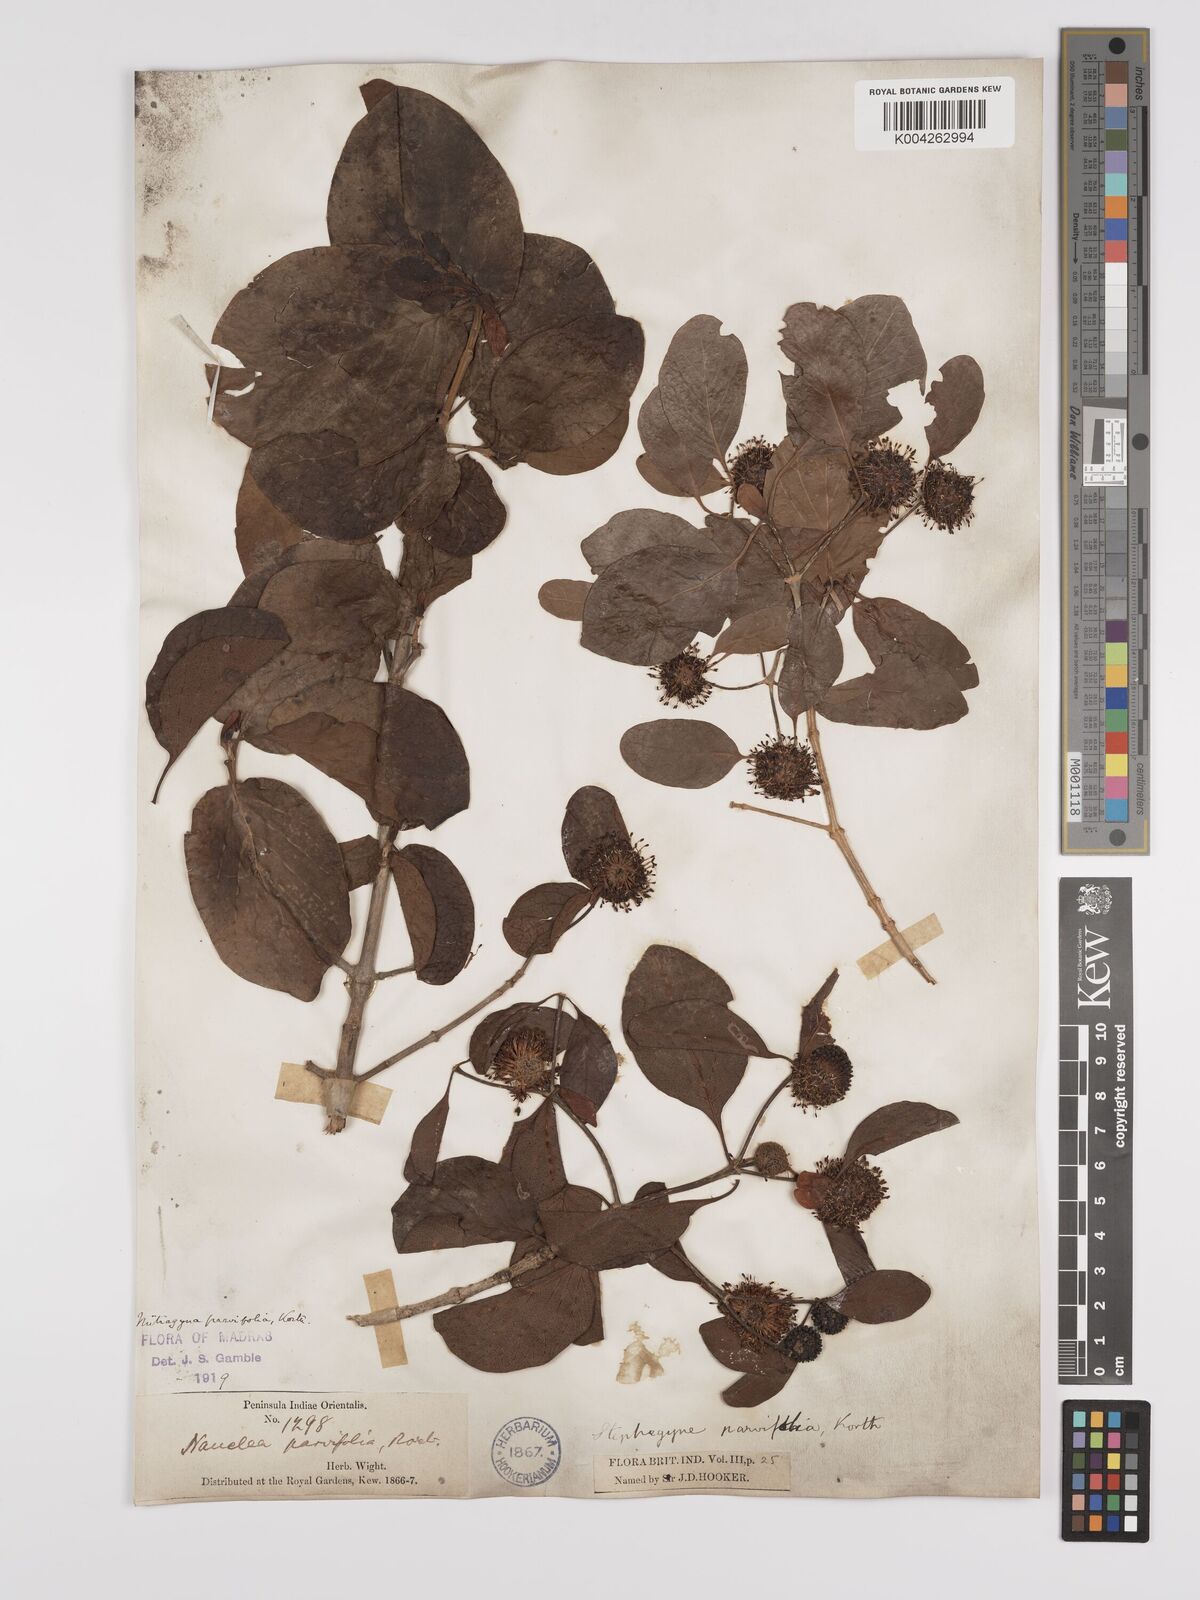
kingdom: Plantae
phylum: Tracheophyta
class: Magnoliopsida
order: Gentianales
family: Rubiaceae
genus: Mitragyna
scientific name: Mitragyna parvifolia
